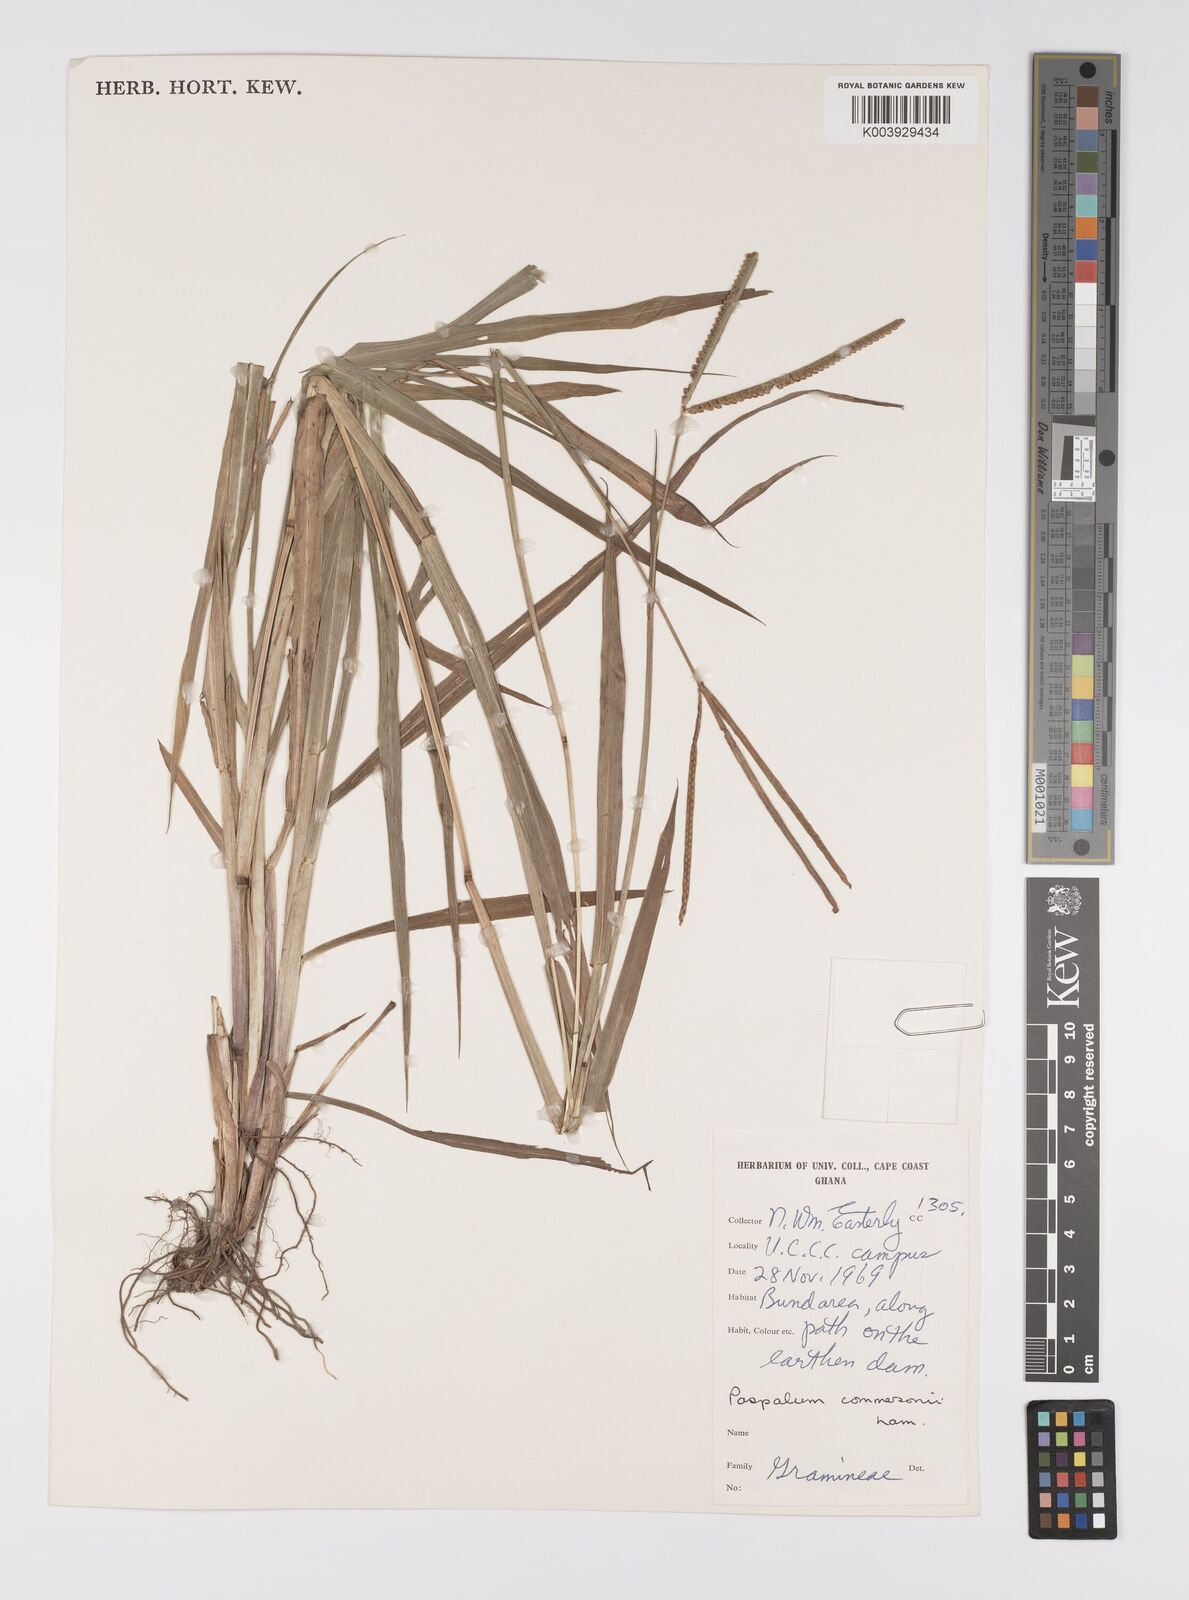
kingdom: Plantae
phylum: Tracheophyta
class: Liliopsida
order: Poales
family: Poaceae
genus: Paspalum
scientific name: Paspalum scrobiculatum
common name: Kodo millet
